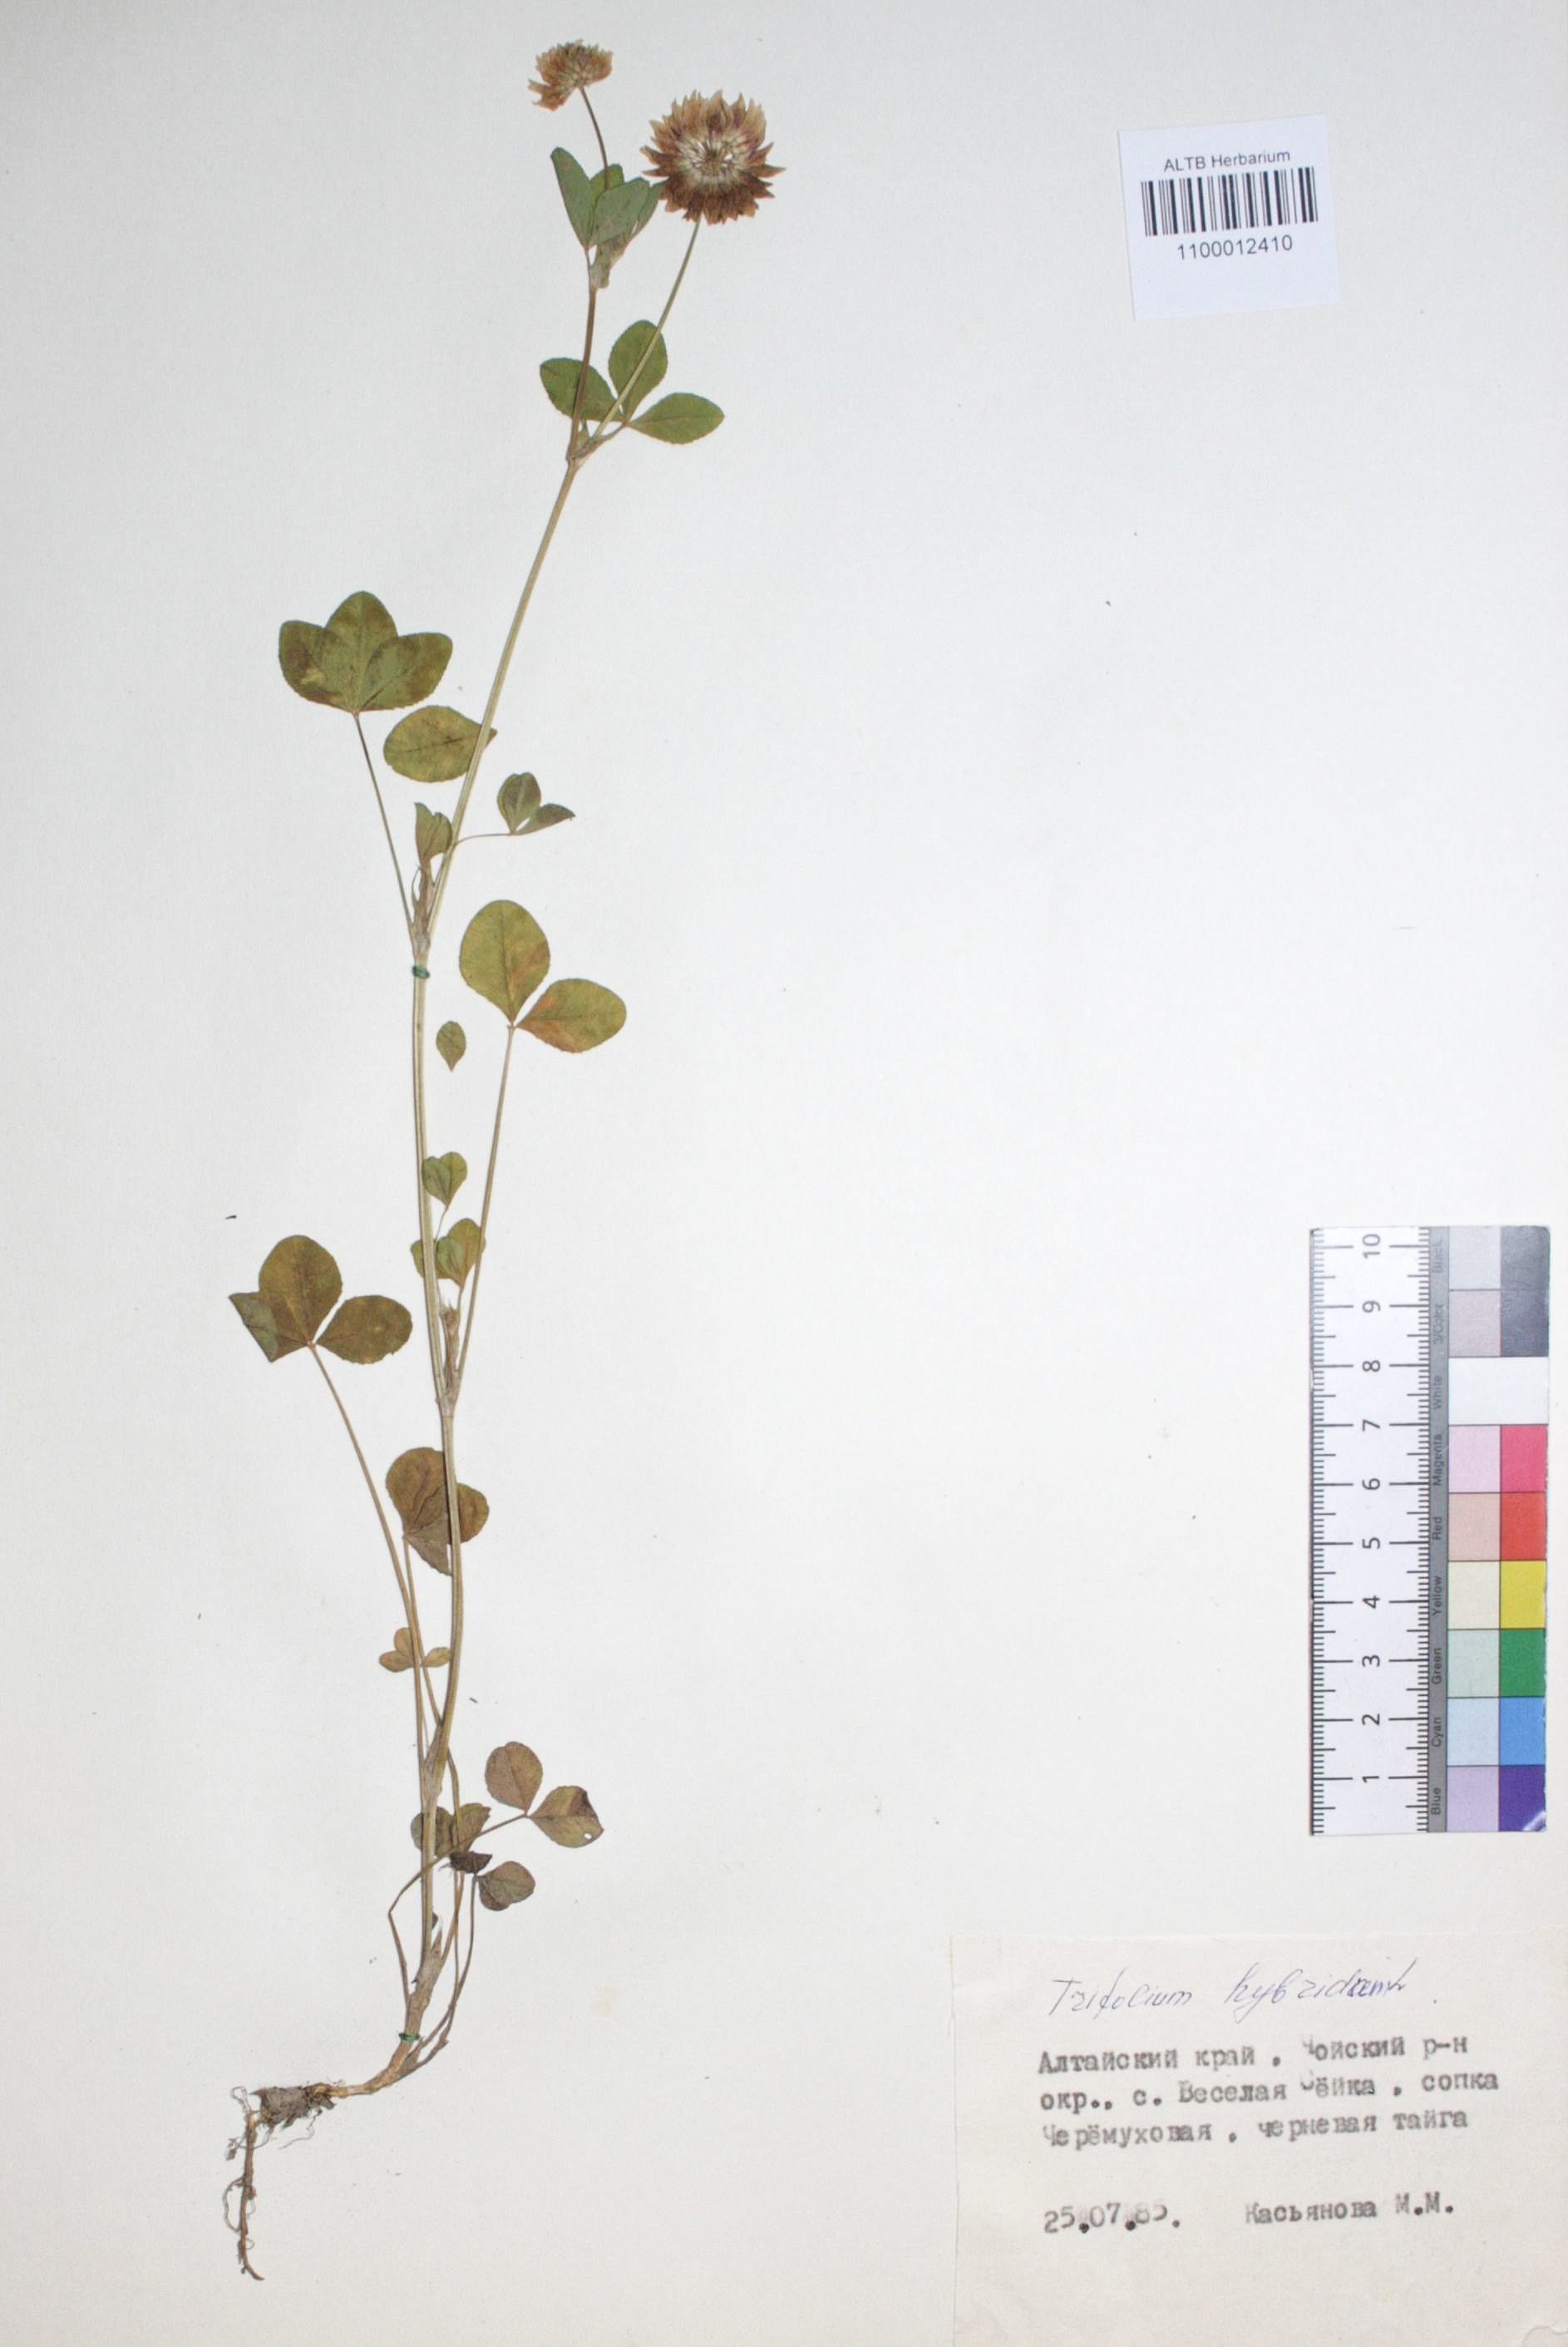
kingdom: Plantae
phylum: Tracheophyta
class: Magnoliopsida
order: Fabales
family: Fabaceae
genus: Trifolium
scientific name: Trifolium hybridum
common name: Alsike clover
